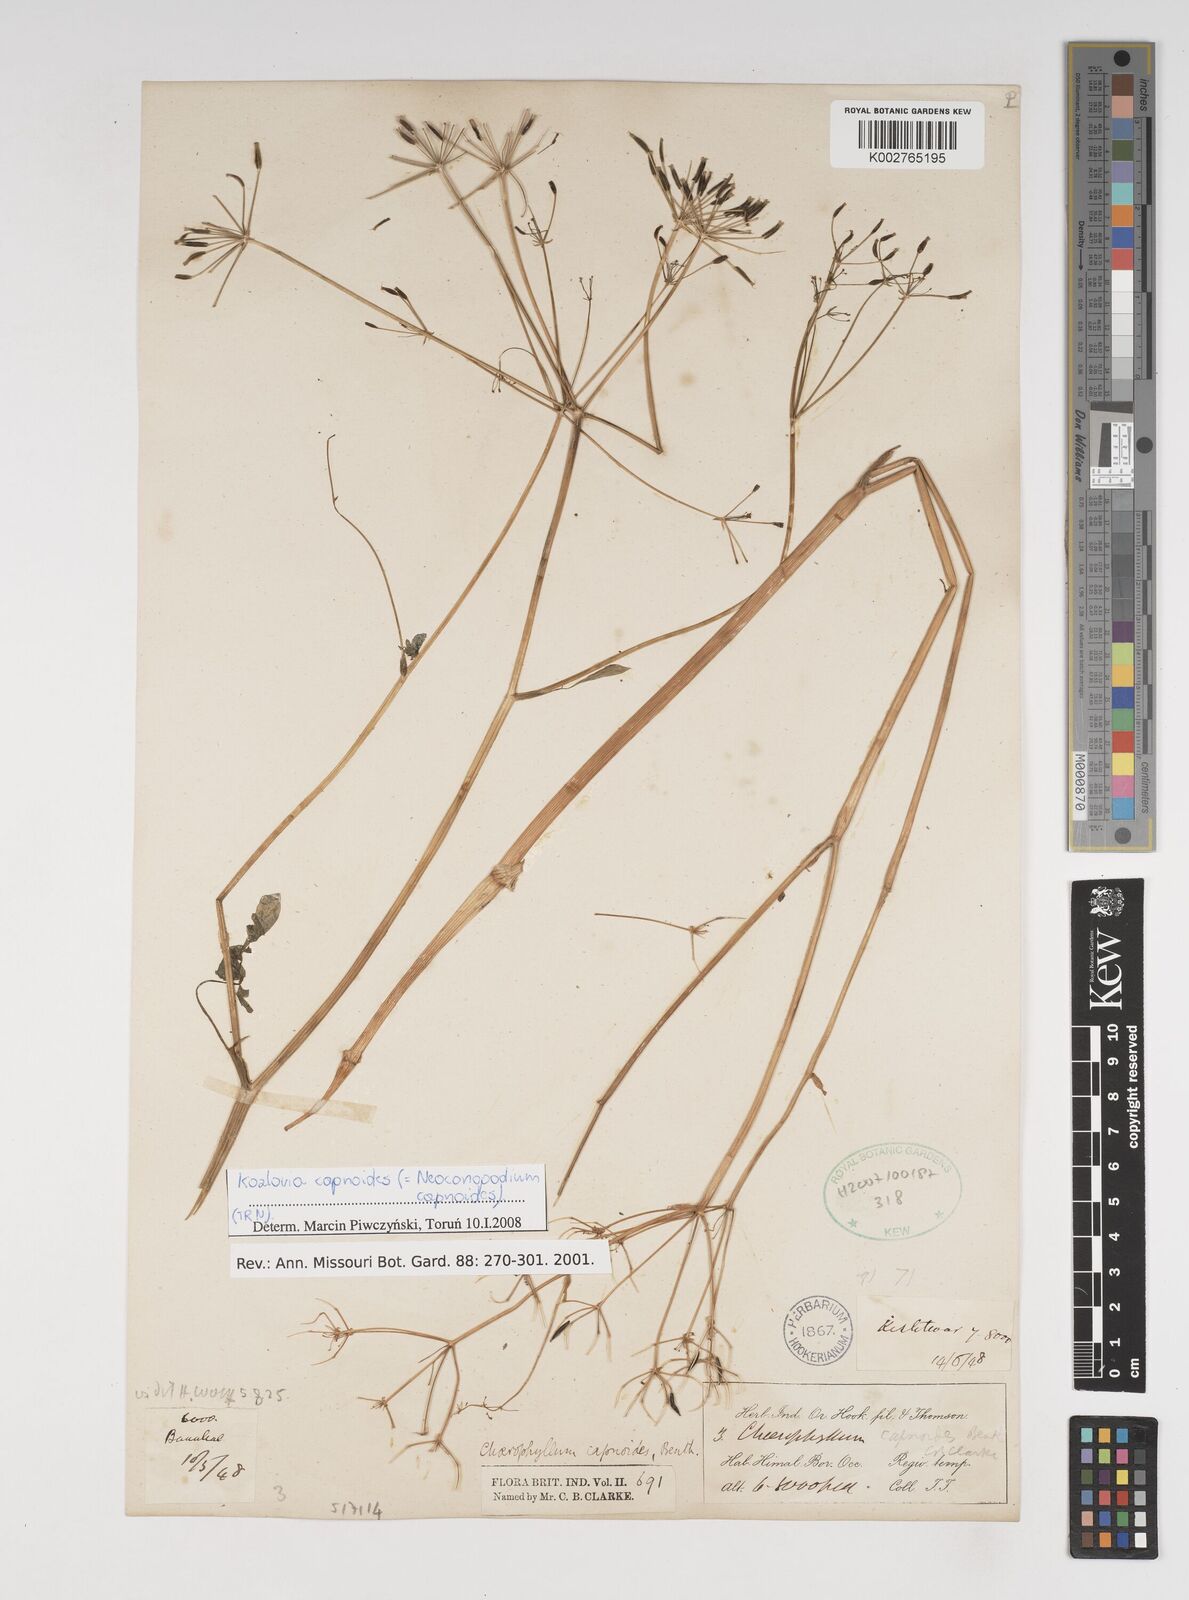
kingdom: Plantae
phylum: Tracheophyta
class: Magnoliopsida
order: Apiales
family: Apiaceae
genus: Kozlovia
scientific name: Kozlovia capnoides
